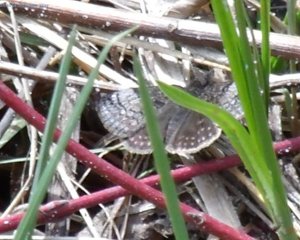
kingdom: Animalia
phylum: Arthropoda
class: Insecta
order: Lepidoptera
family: Hesperiidae
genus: Erynnis
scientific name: Erynnis icelus
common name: Dreamy Duskywing
